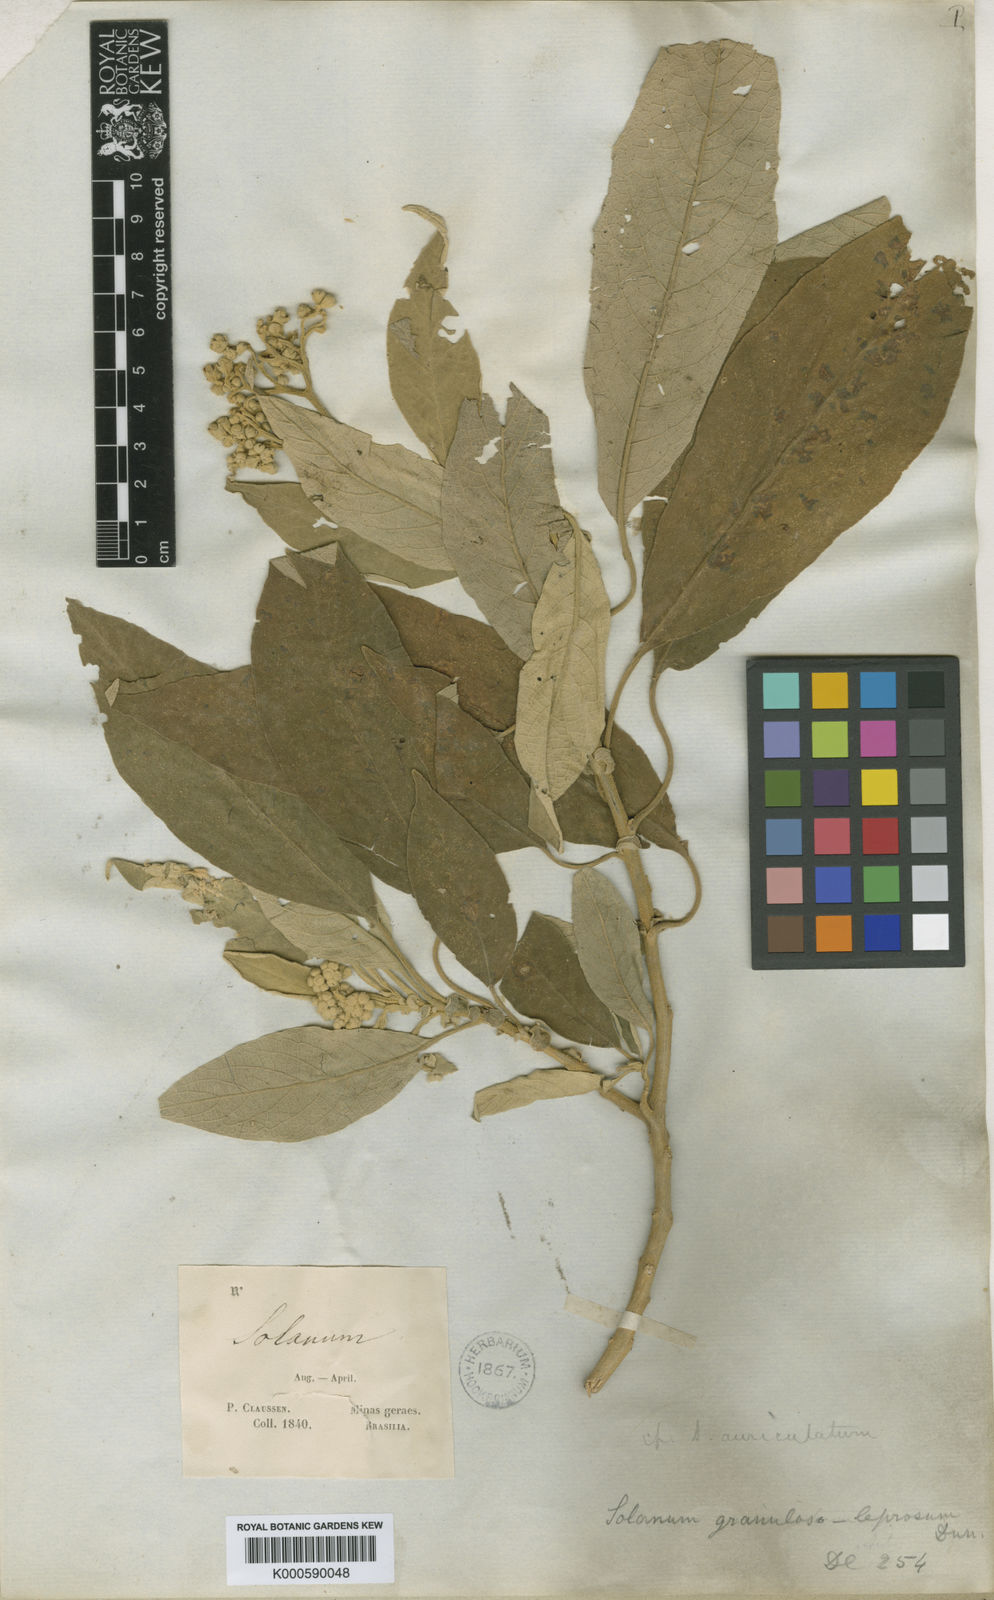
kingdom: Plantae
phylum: Tracheophyta
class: Magnoliopsida
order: Solanales
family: Solanaceae
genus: Solanum
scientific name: Solanum granulosoleprosum
